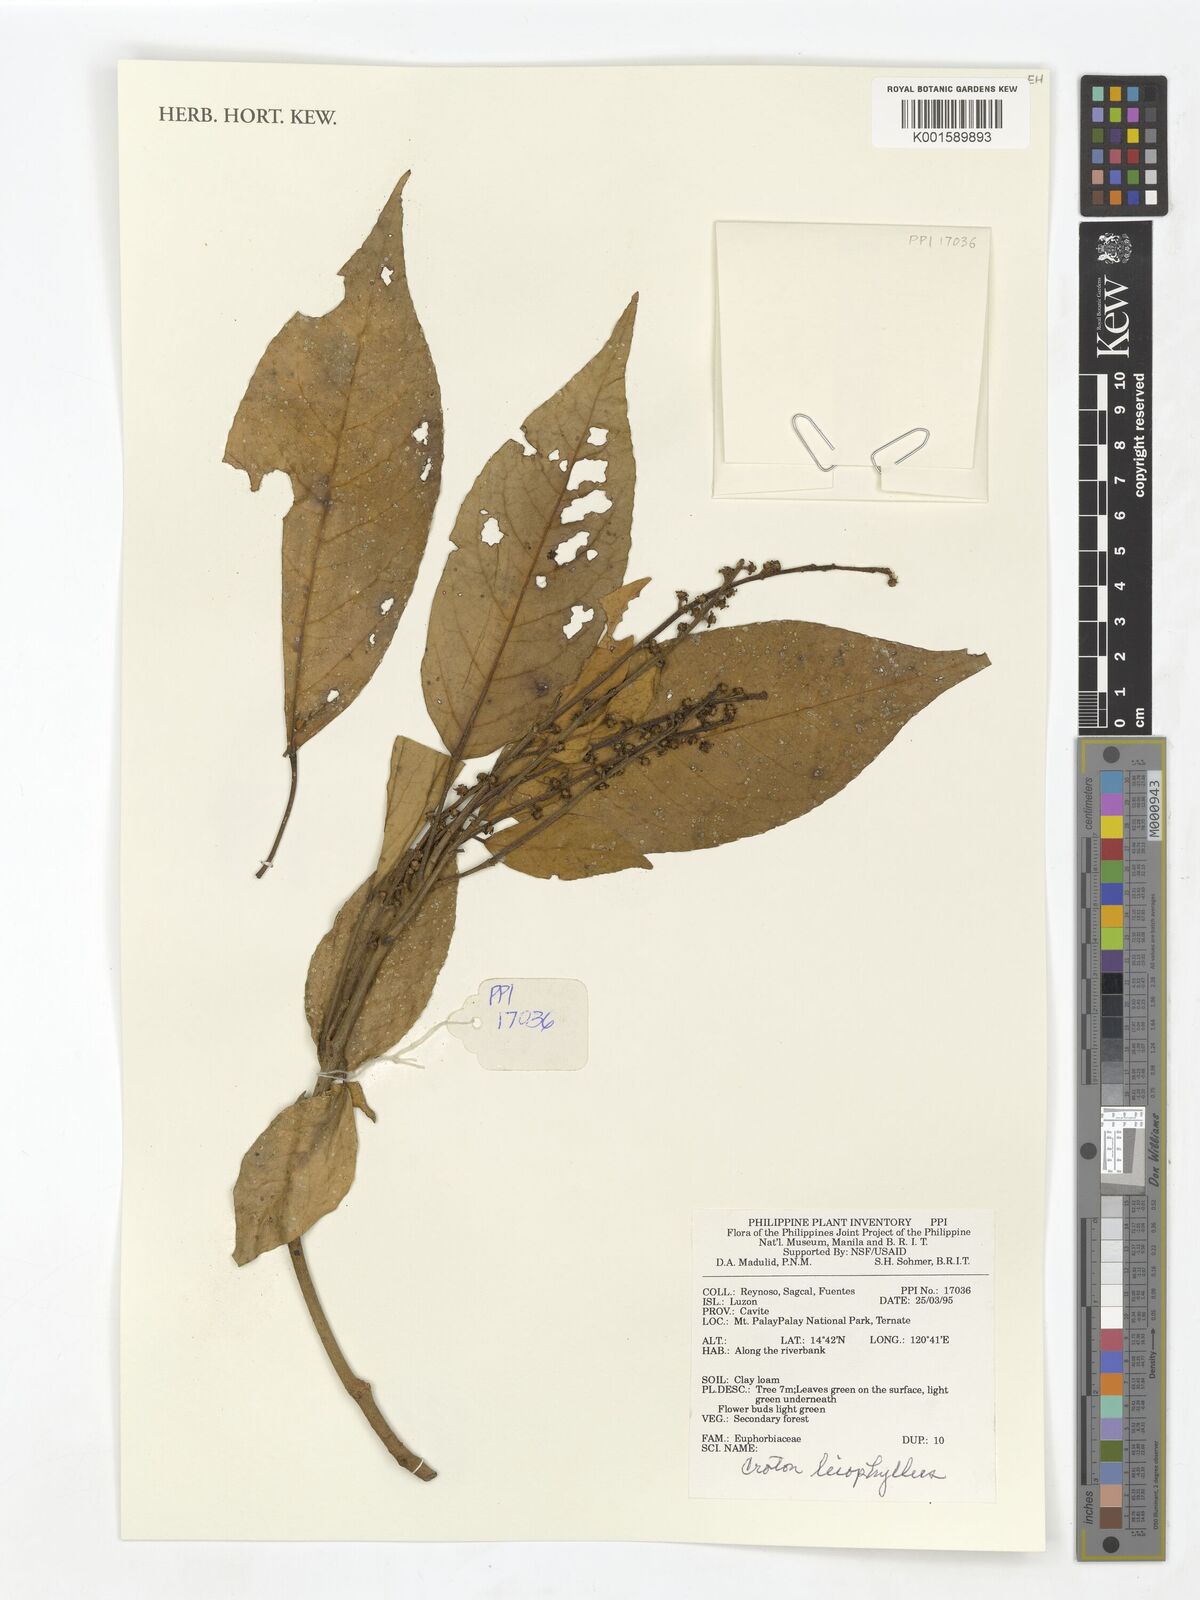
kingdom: Plantae
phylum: Tracheophyta
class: Magnoliopsida
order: Malpighiales
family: Euphorbiaceae
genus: Croton
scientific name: Croton leiophyllus
